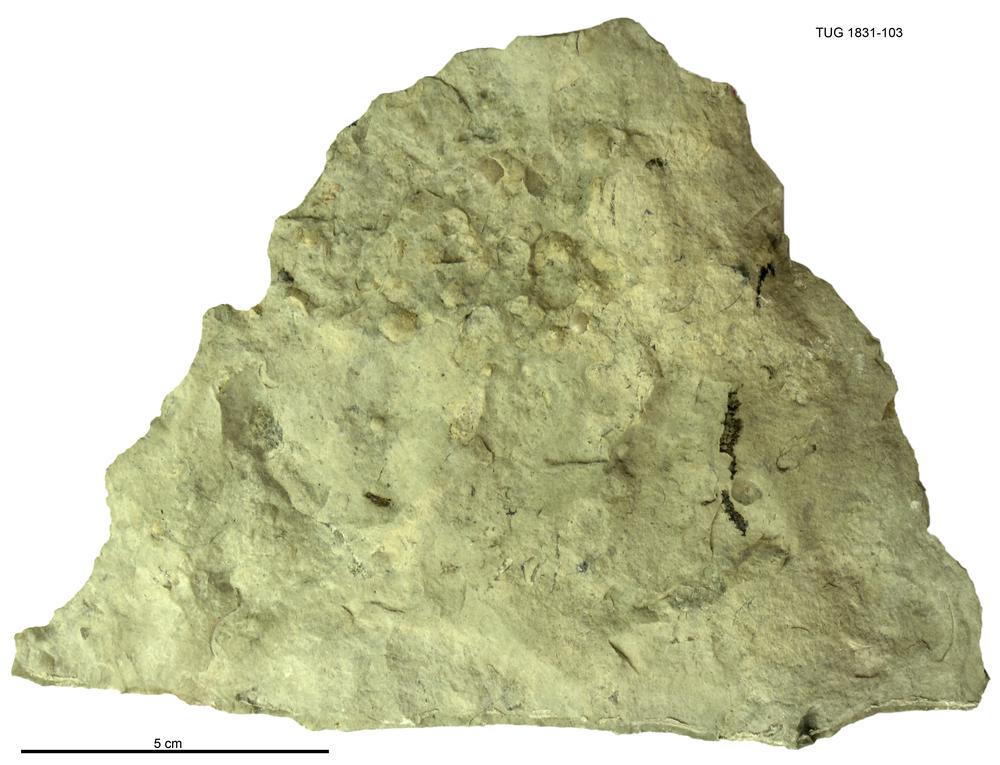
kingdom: Animalia
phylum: Echinodermata
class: Crinoidea
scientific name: Crinoidea
